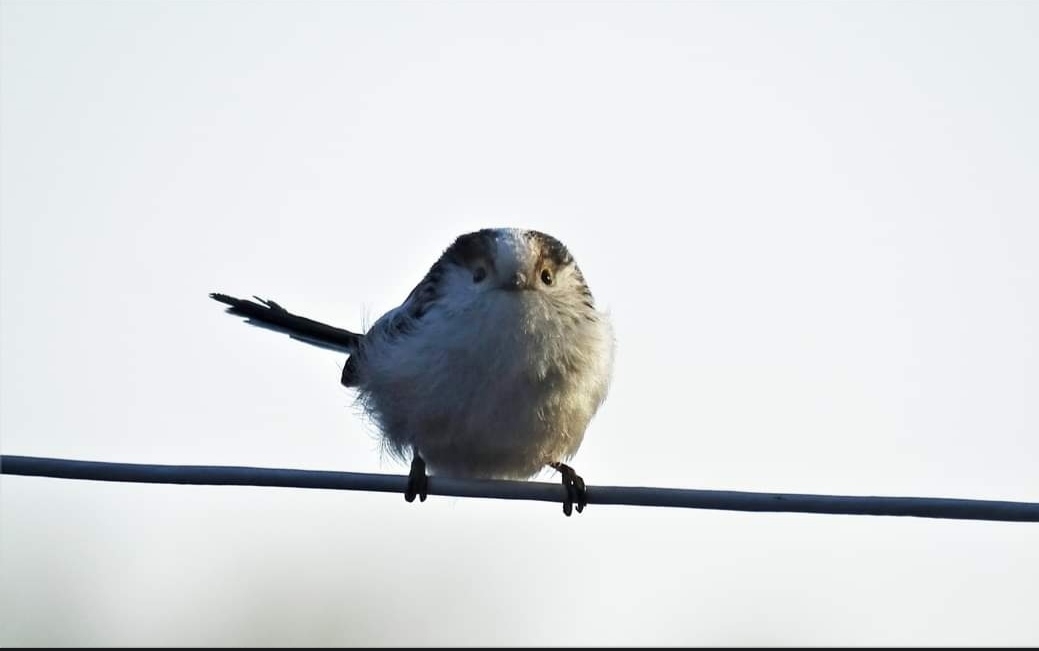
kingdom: Animalia
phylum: Chordata
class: Aves
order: Passeriformes
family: Aegithalidae
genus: Aegithalos
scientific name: Aegithalos caudatus
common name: Halemejse
